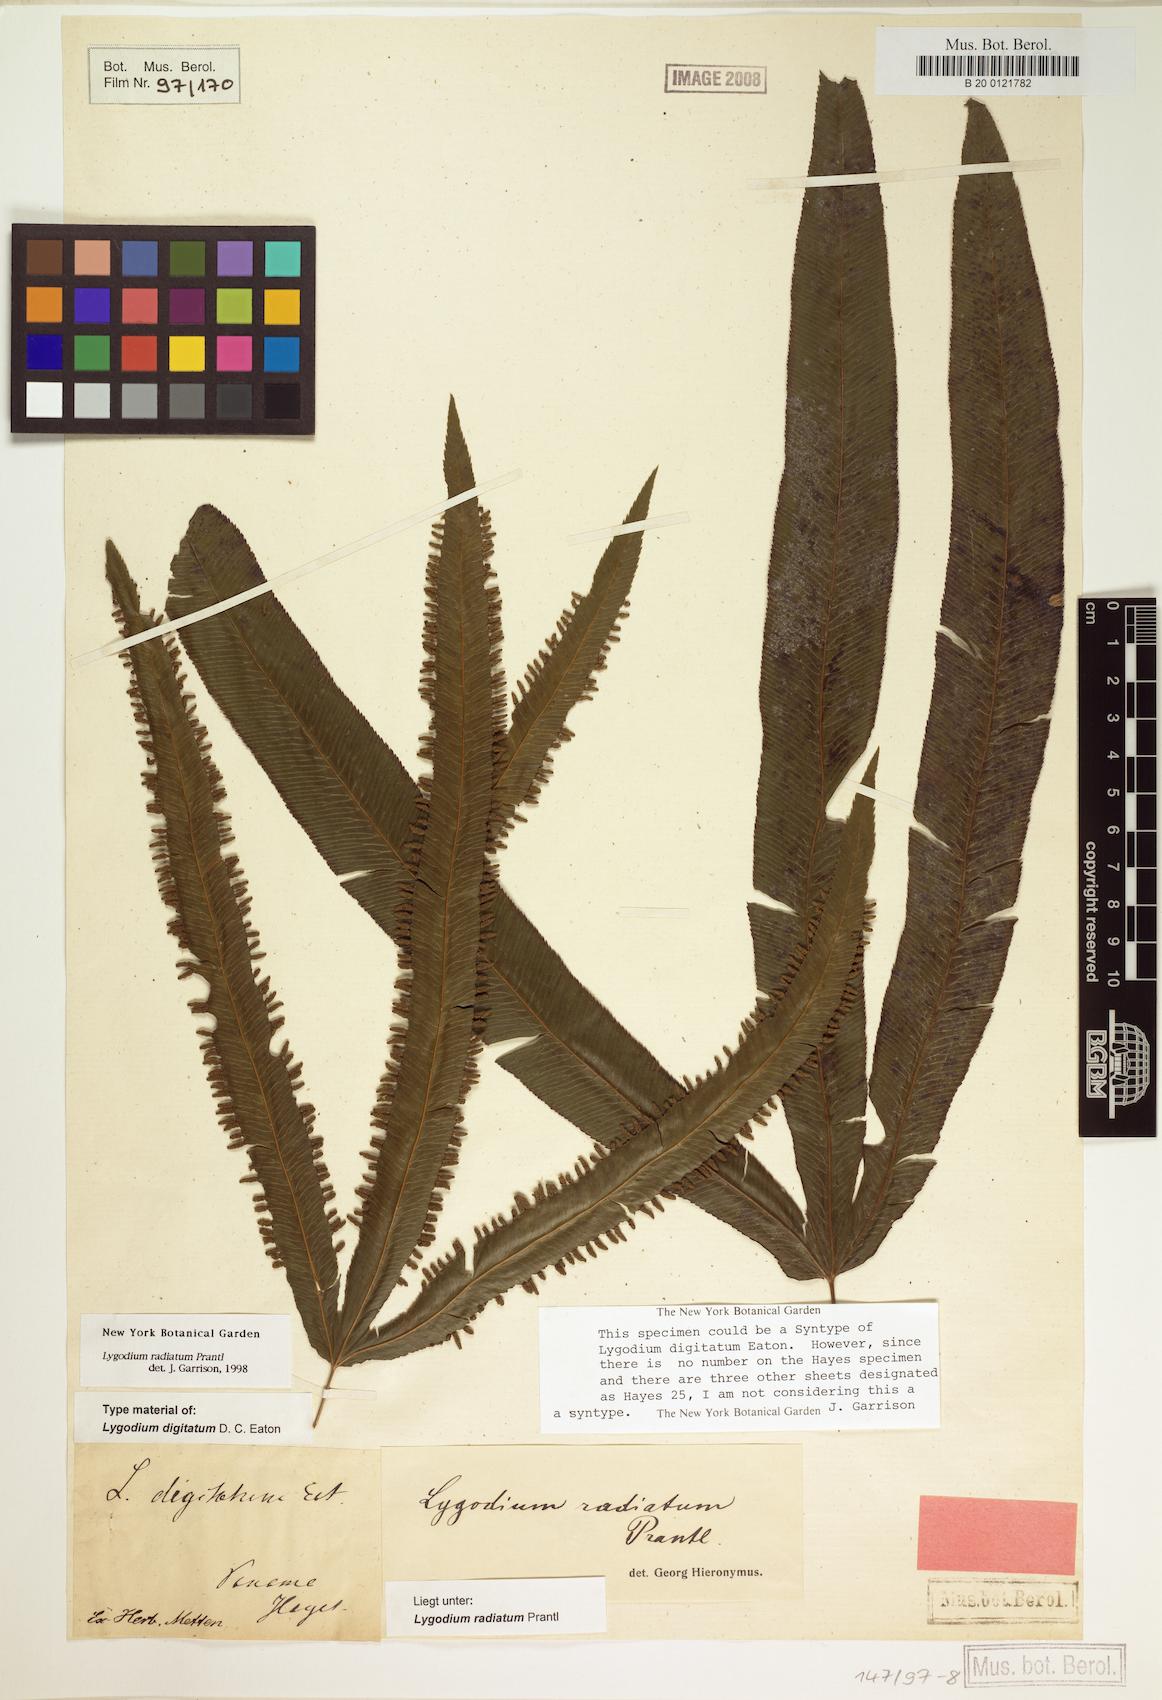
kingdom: Plantae
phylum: Tracheophyta
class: Polypodiopsida
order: Schizaeales
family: Lygodiaceae
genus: Lygodium
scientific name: Lygodium radiatum
